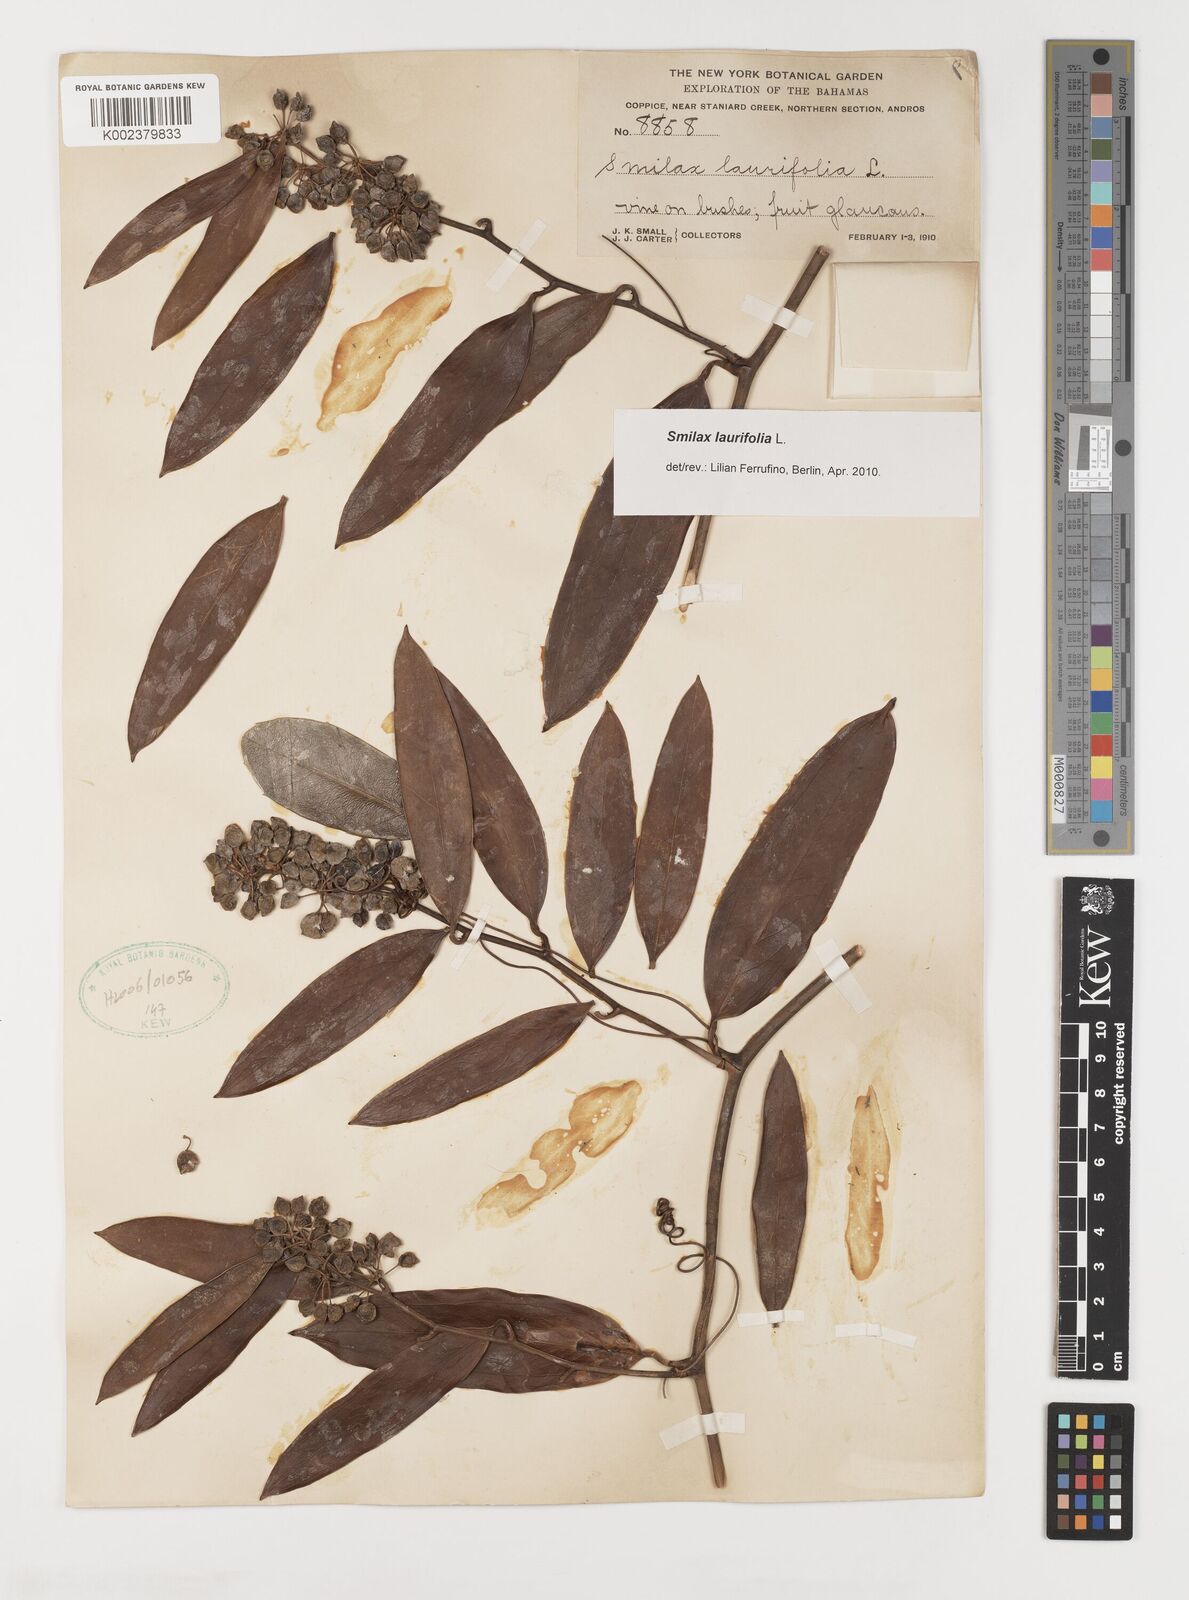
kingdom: Plantae
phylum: Tracheophyta
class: Liliopsida
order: Liliales
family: Smilacaceae
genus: Smilax
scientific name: Smilax laurifolia
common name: Bamboovine
